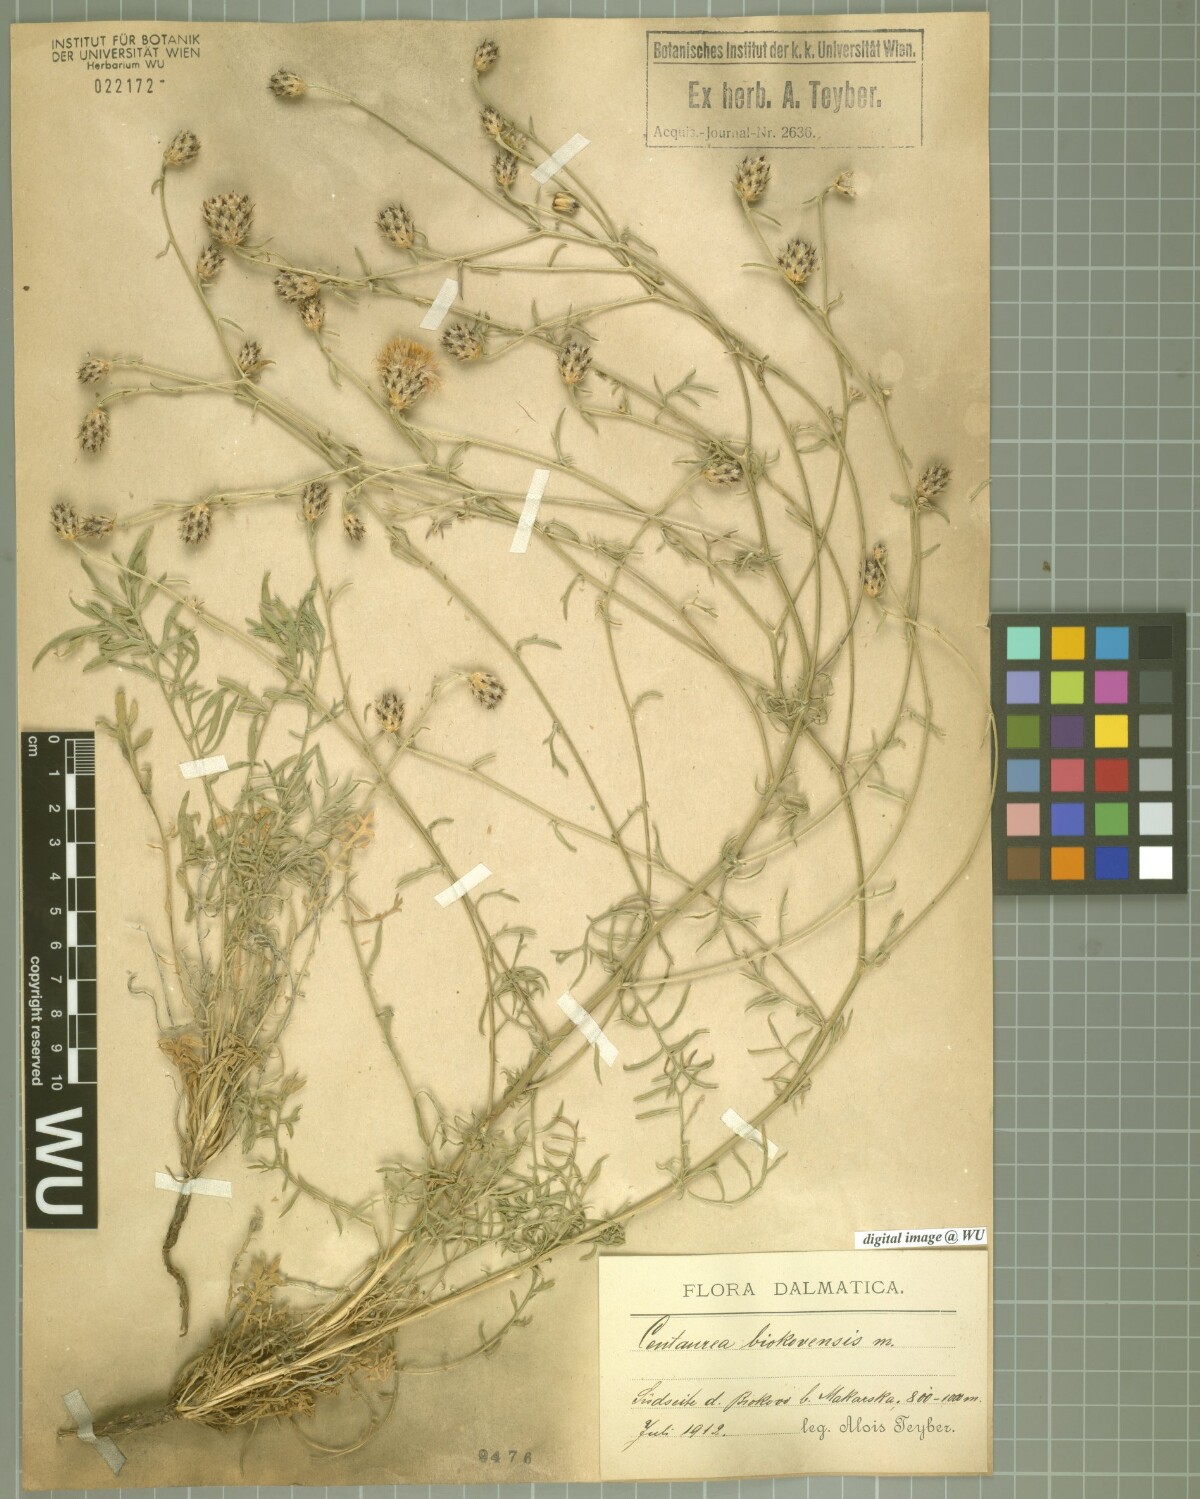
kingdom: Plantae
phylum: Tracheophyta
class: Magnoliopsida
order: Asterales
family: Asteraceae
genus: Centaurea
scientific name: Centaurea biokovensis
